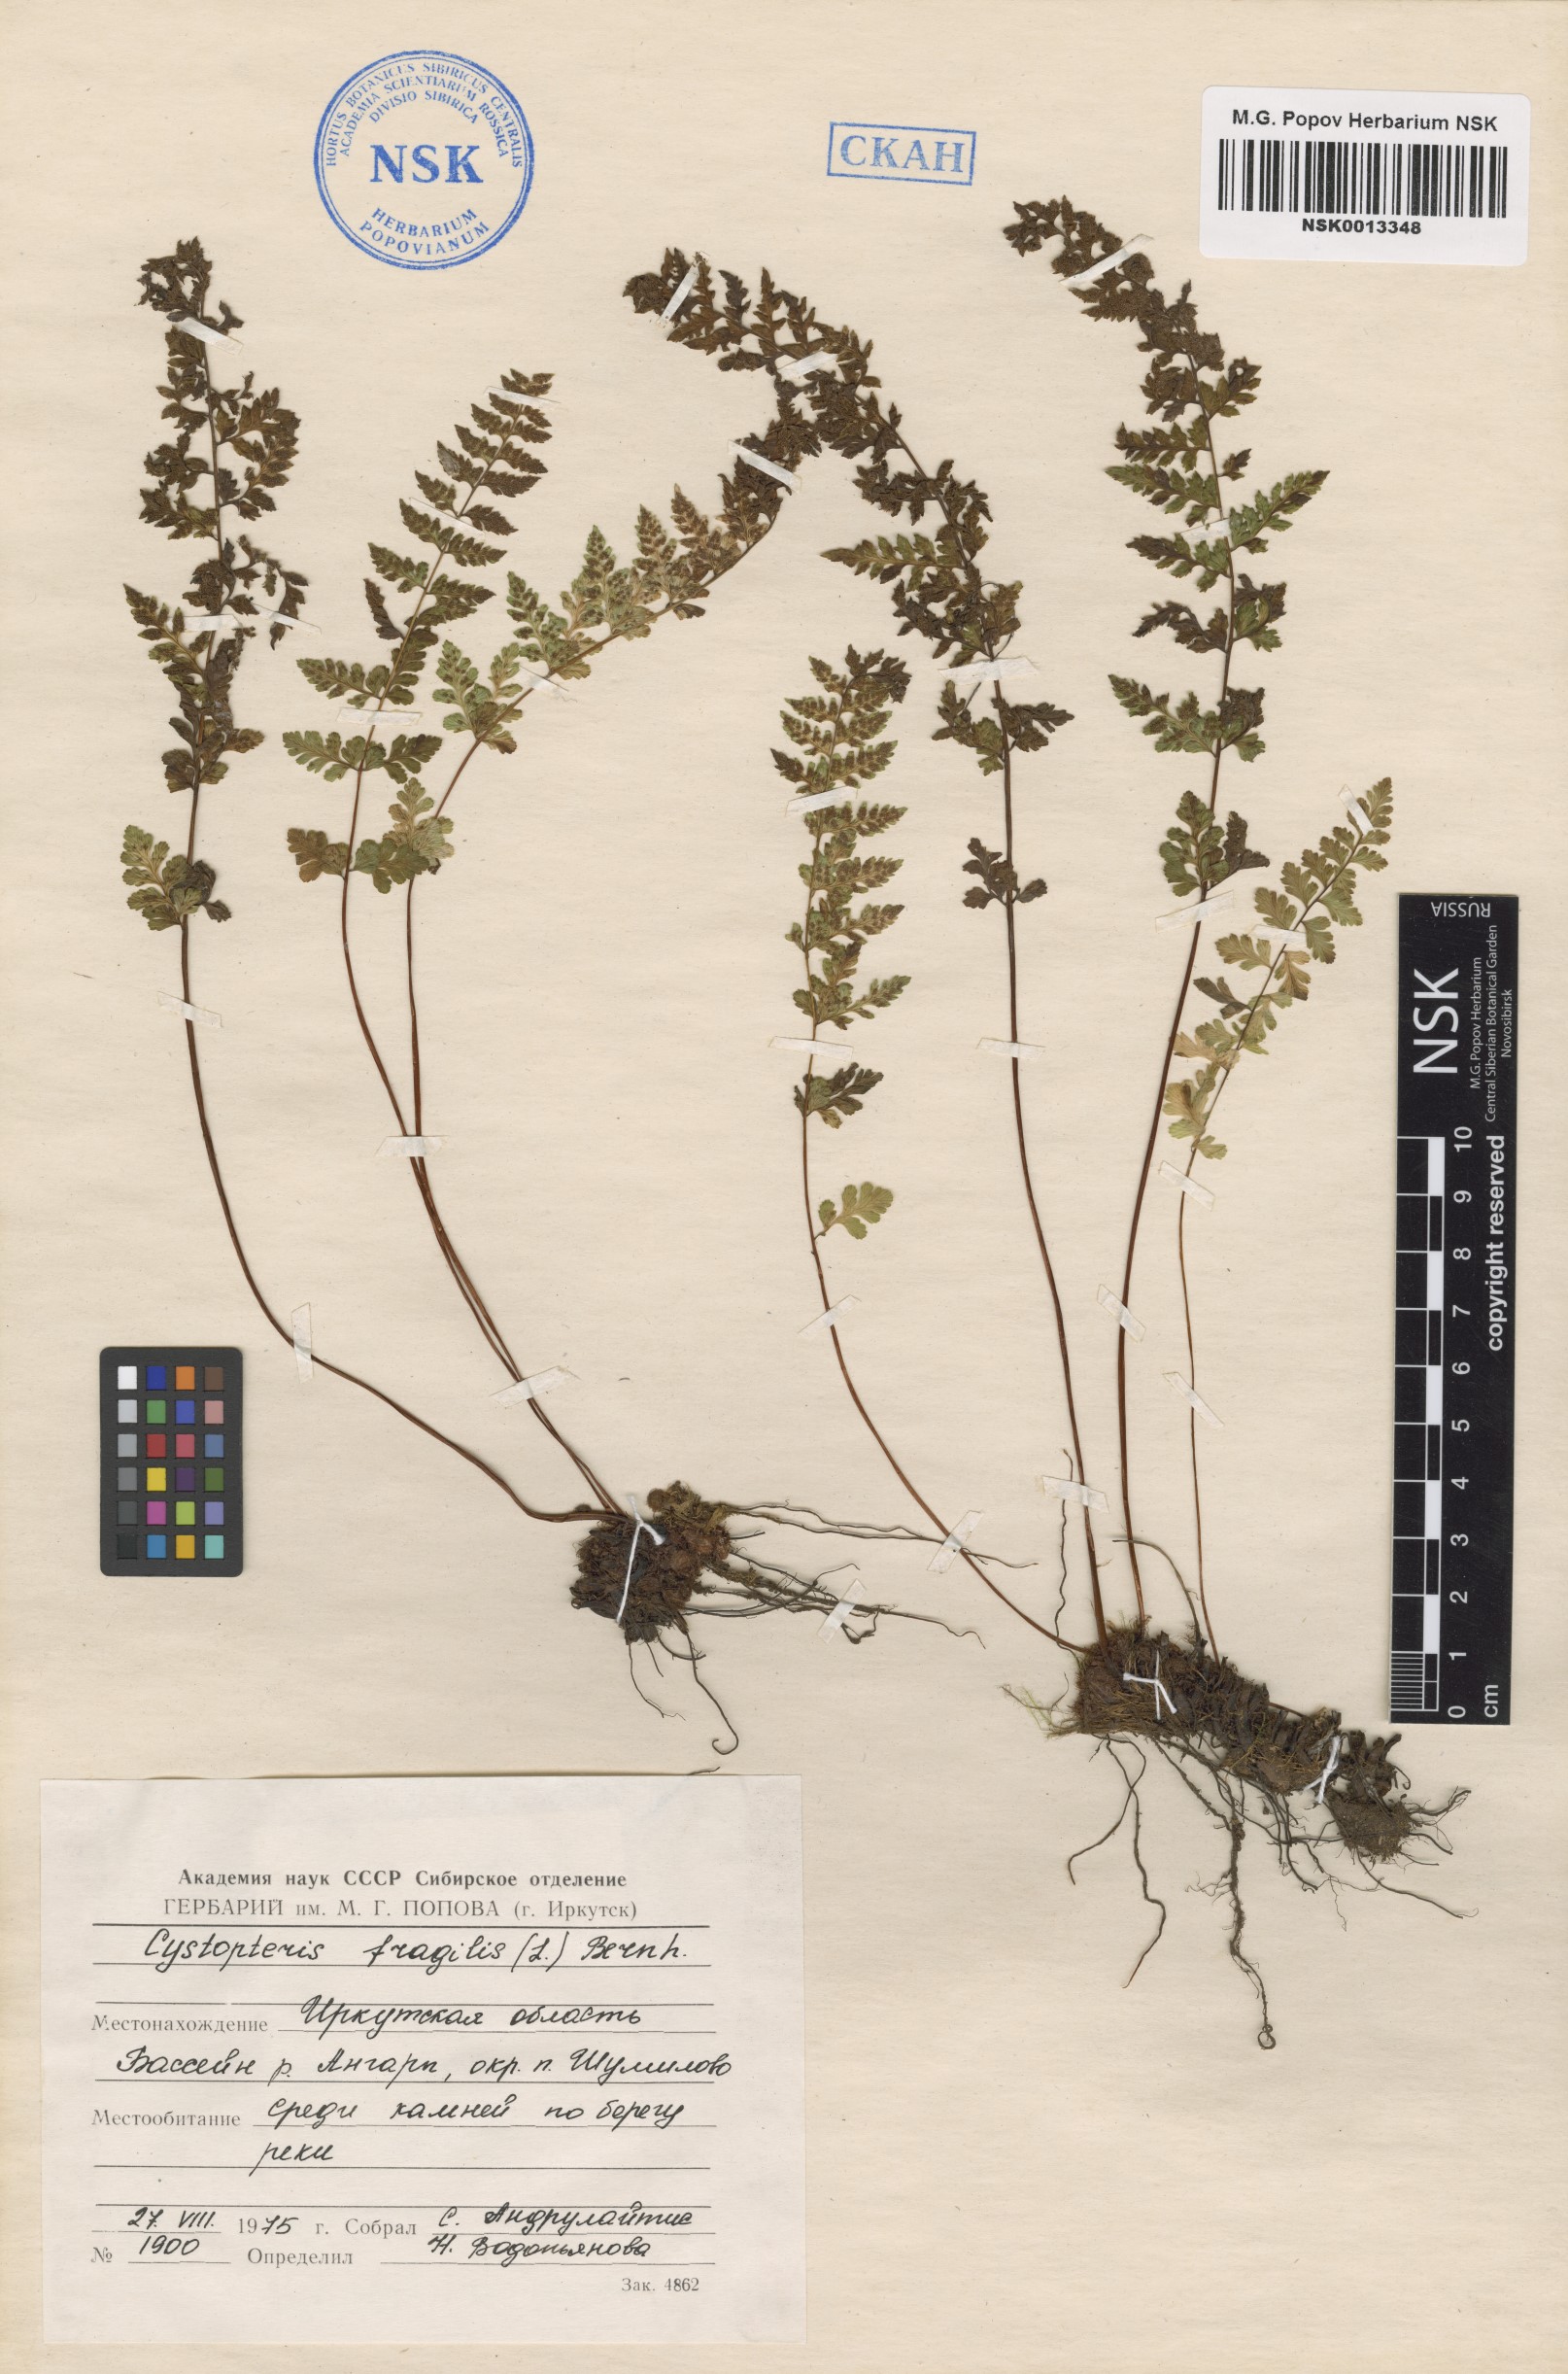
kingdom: Plantae
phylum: Tracheophyta
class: Polypodiopsida
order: Polypodiales
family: Cystopteridaceae
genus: Cystopteris
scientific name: Cystopteris fragilis
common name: Brittle bladder fern
